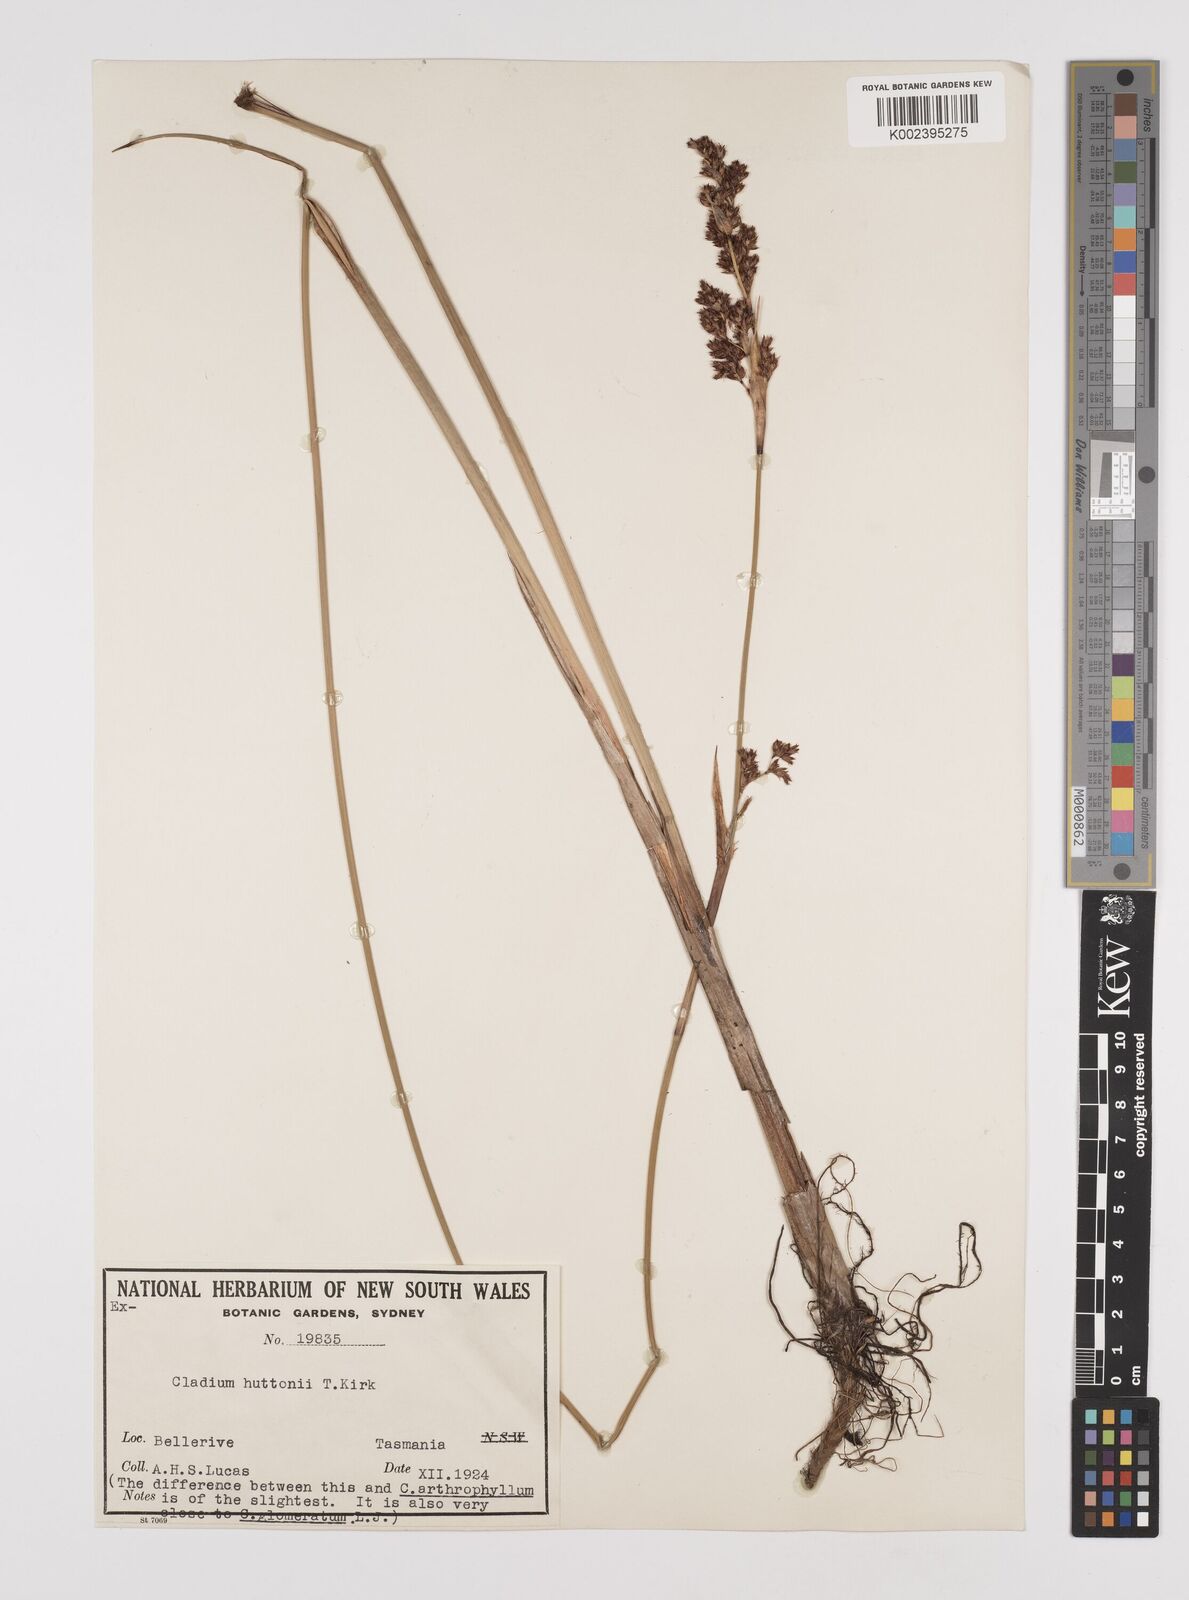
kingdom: Plantae
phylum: Tracheophyta
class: Liliopsida
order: Poales
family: Cyperaceae
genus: Machaerina
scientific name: Machaerina huttonii
